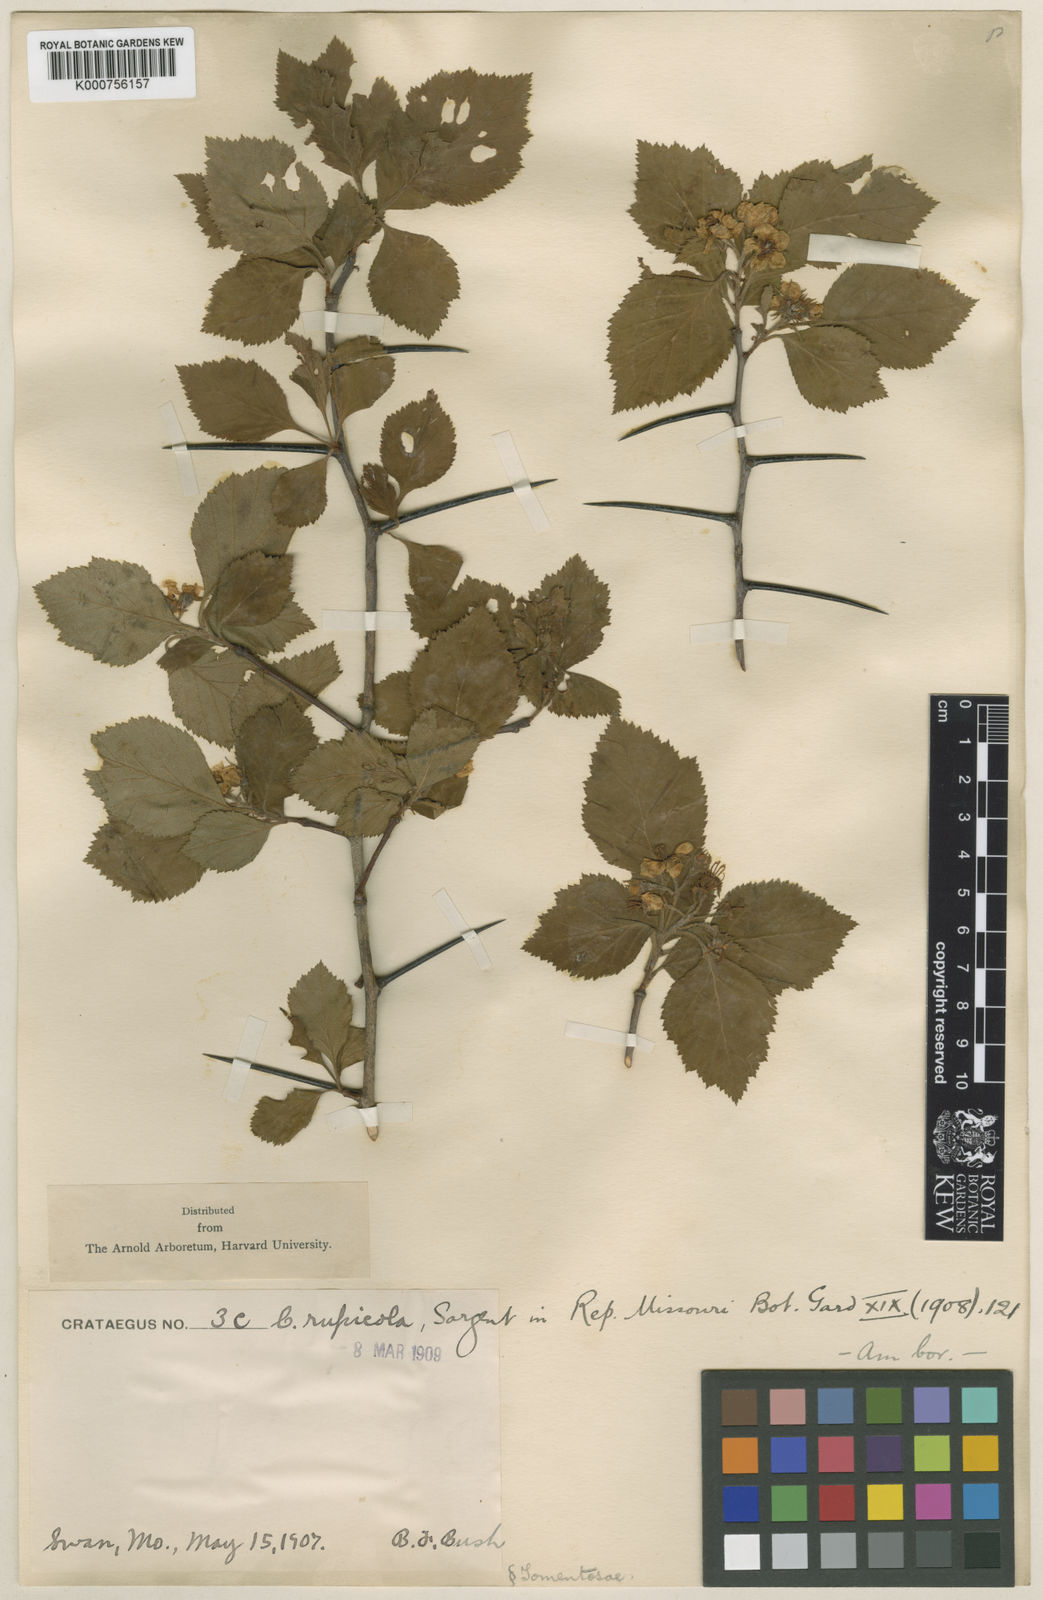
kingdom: Plantae
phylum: Tracheophyta
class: Magnoliopsida
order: Rosales
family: Rosaceae
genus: Crataegus
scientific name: Crataegus
